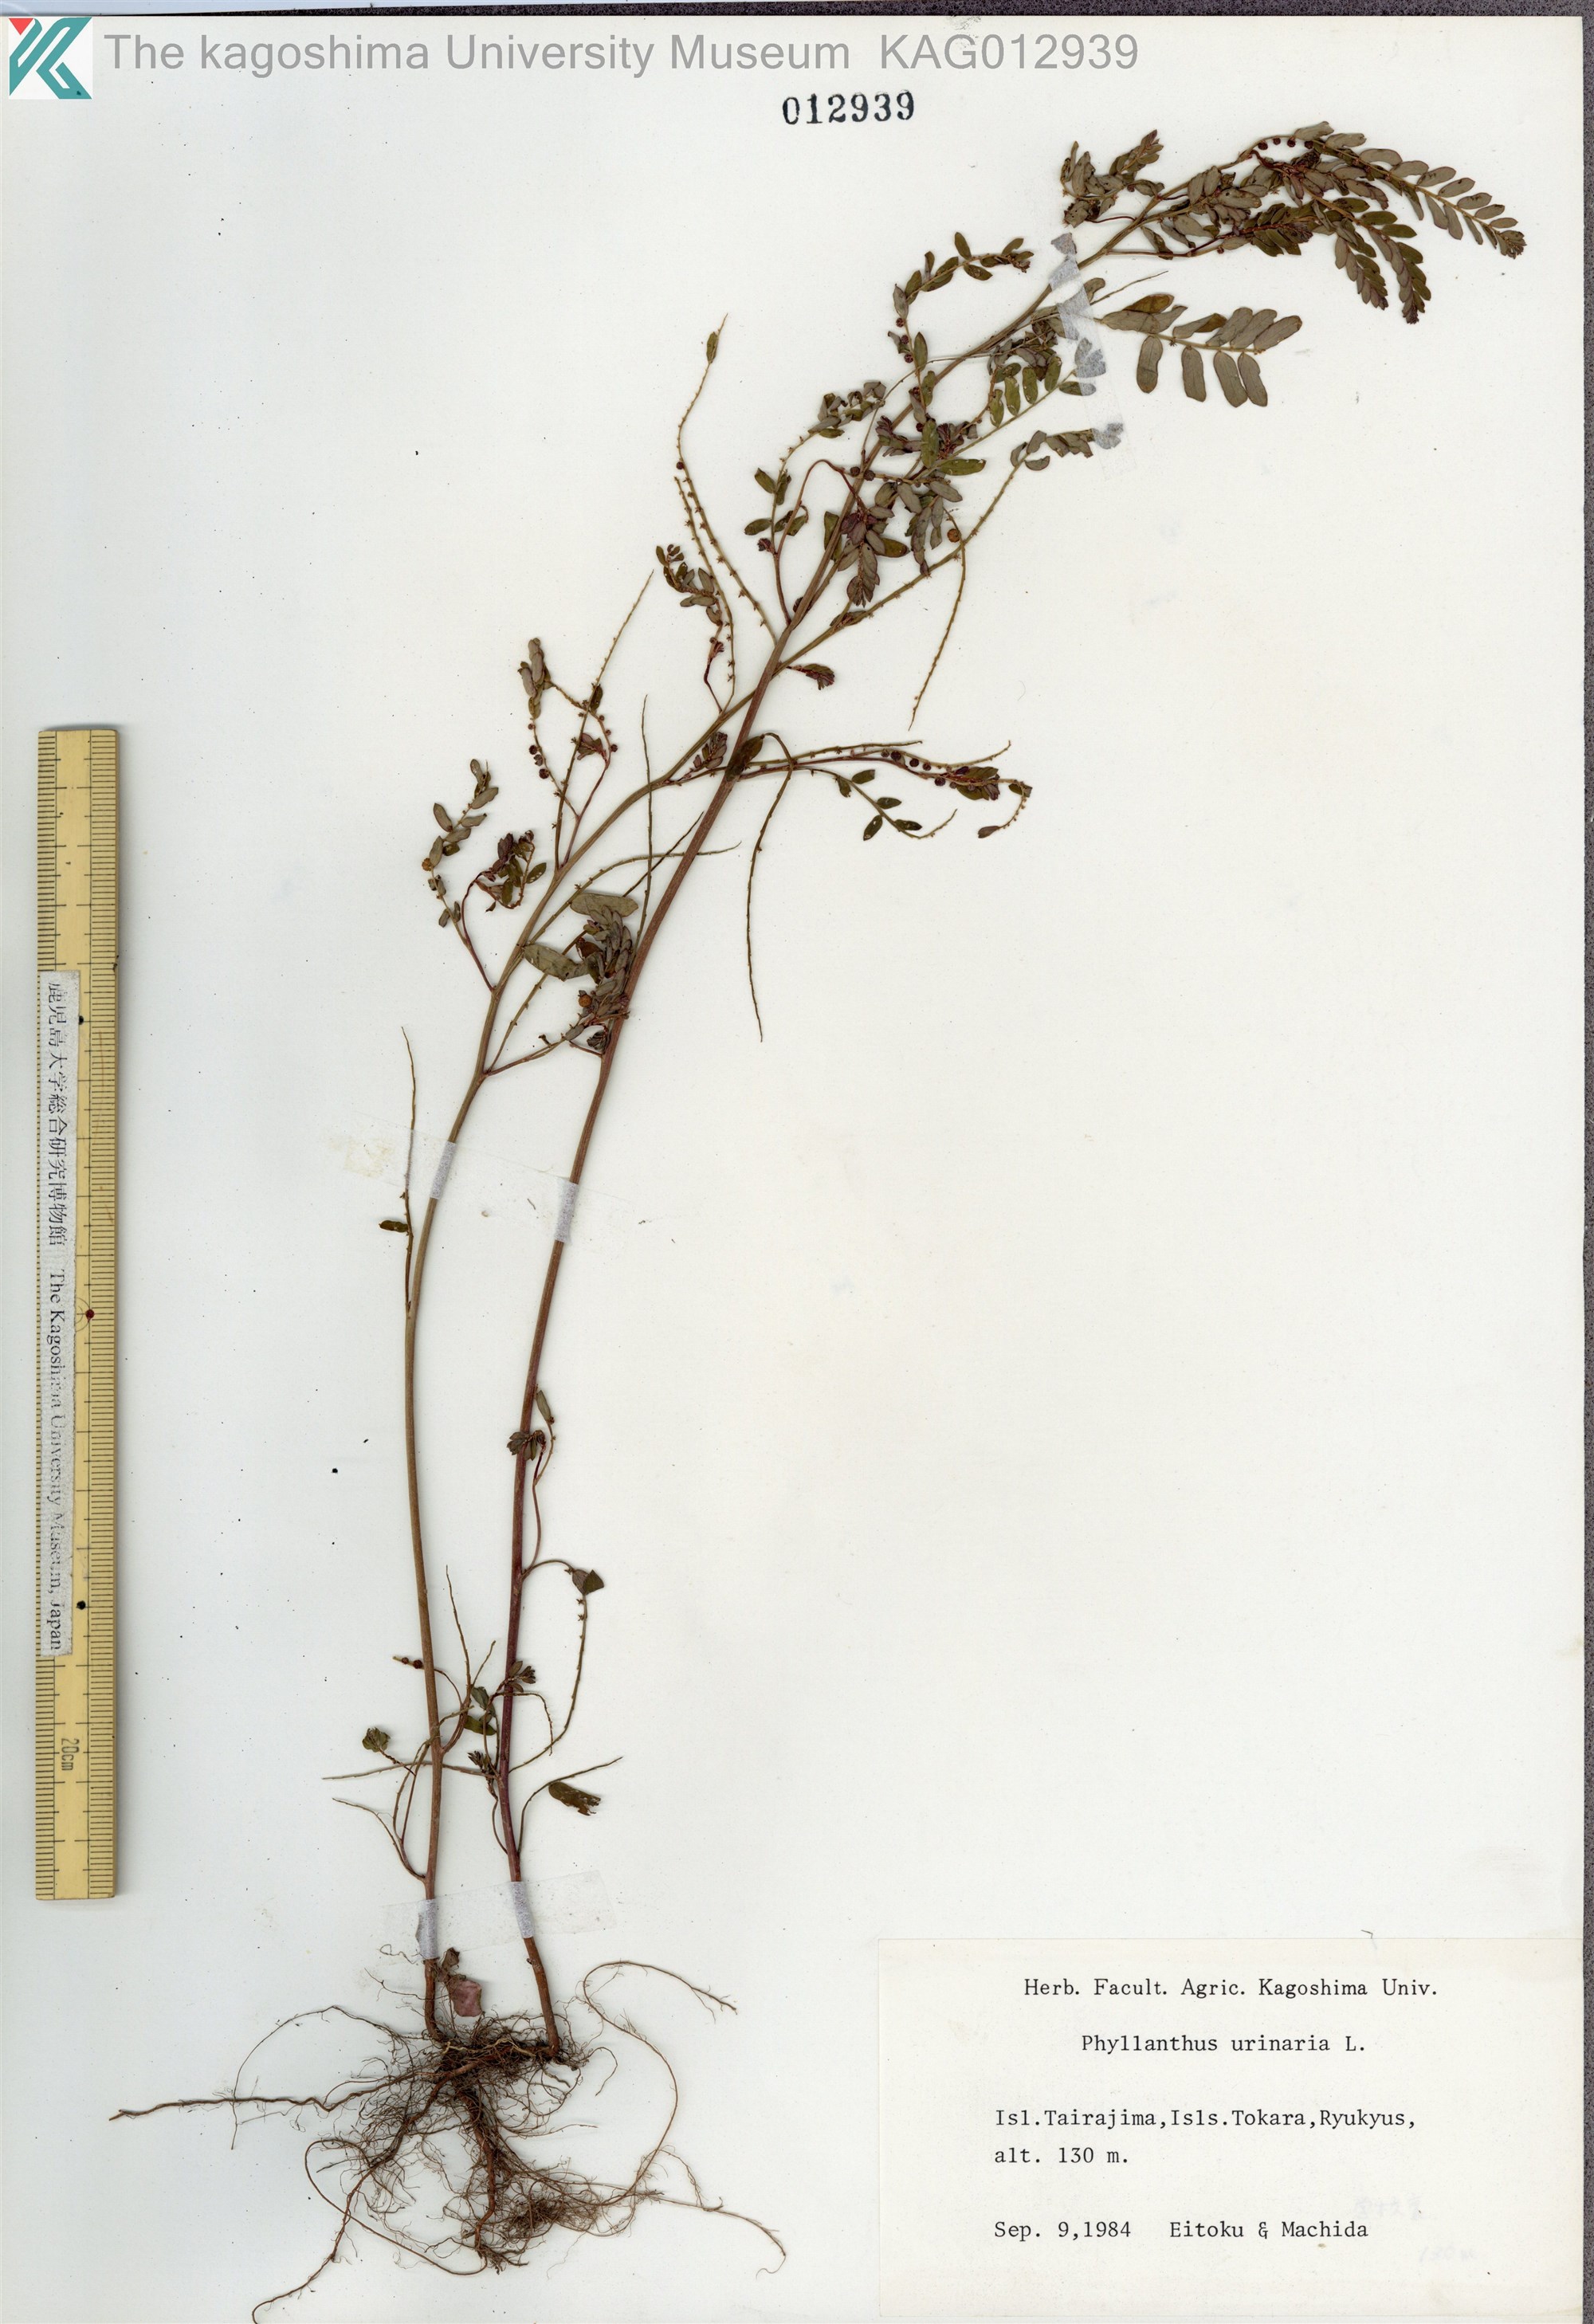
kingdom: Plantae
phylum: Tracheophyta
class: Magnoliopsida
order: Malpighiales
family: Phyllanthaceae
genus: Phyllanthus
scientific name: Phyllanthus urinaria
